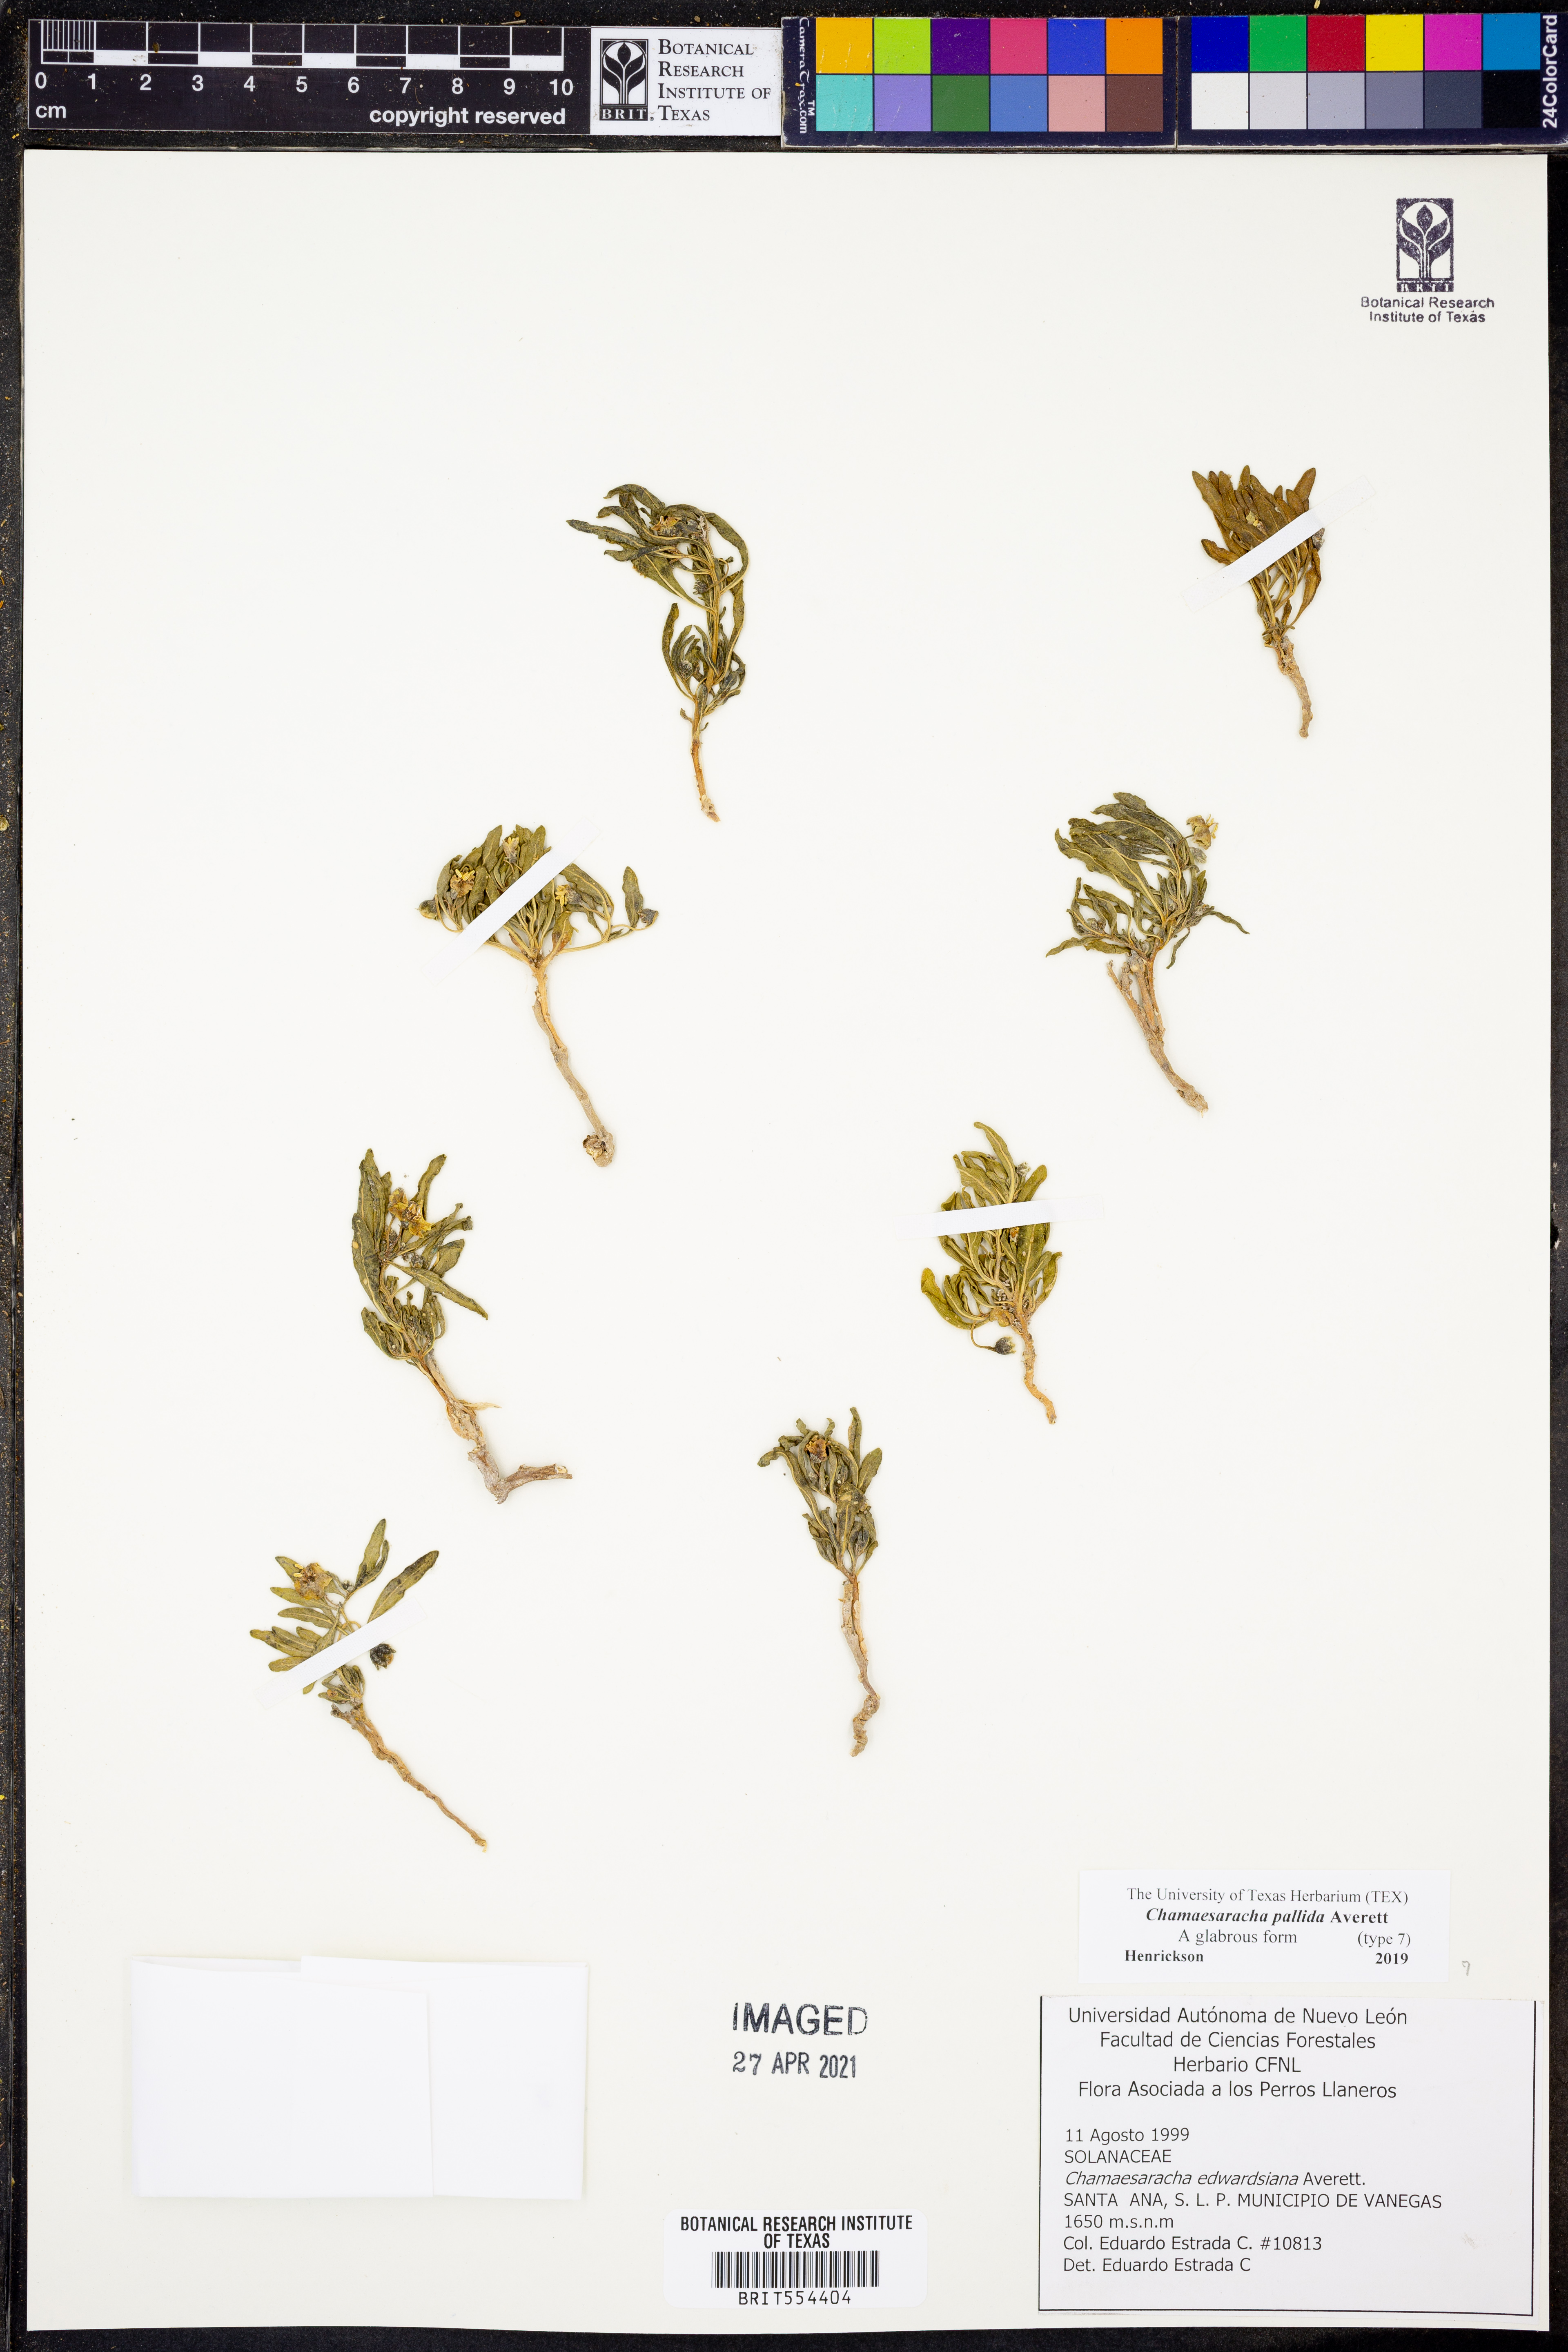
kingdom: Plantae
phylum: Tracheophyta
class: Magnoliopsida
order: Solanales
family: Solanaceae
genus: Chamaesaracha
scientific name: Chamaesaracha pallida
